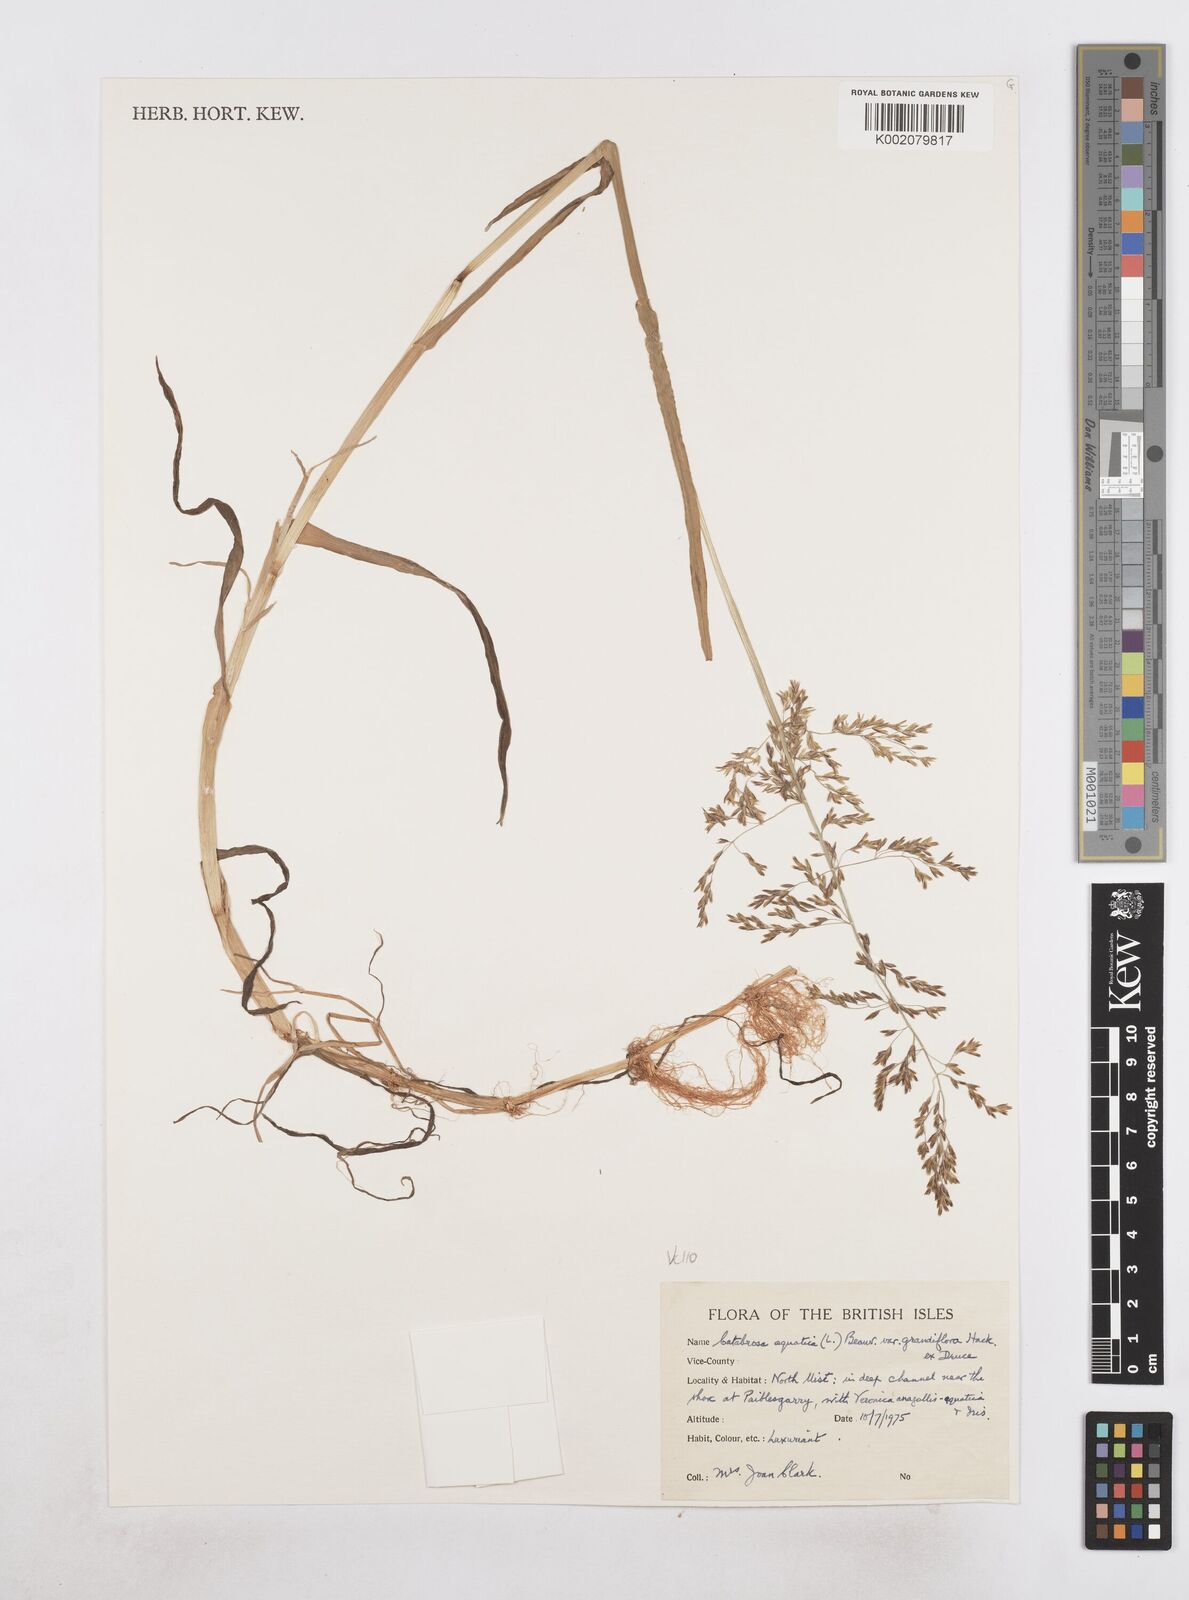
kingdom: Plantae
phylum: Tracheophyta
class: Liliopsida
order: Poales
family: Poaceae
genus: Catabrosa
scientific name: Catabrosa aquatica
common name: Whorl-grass
